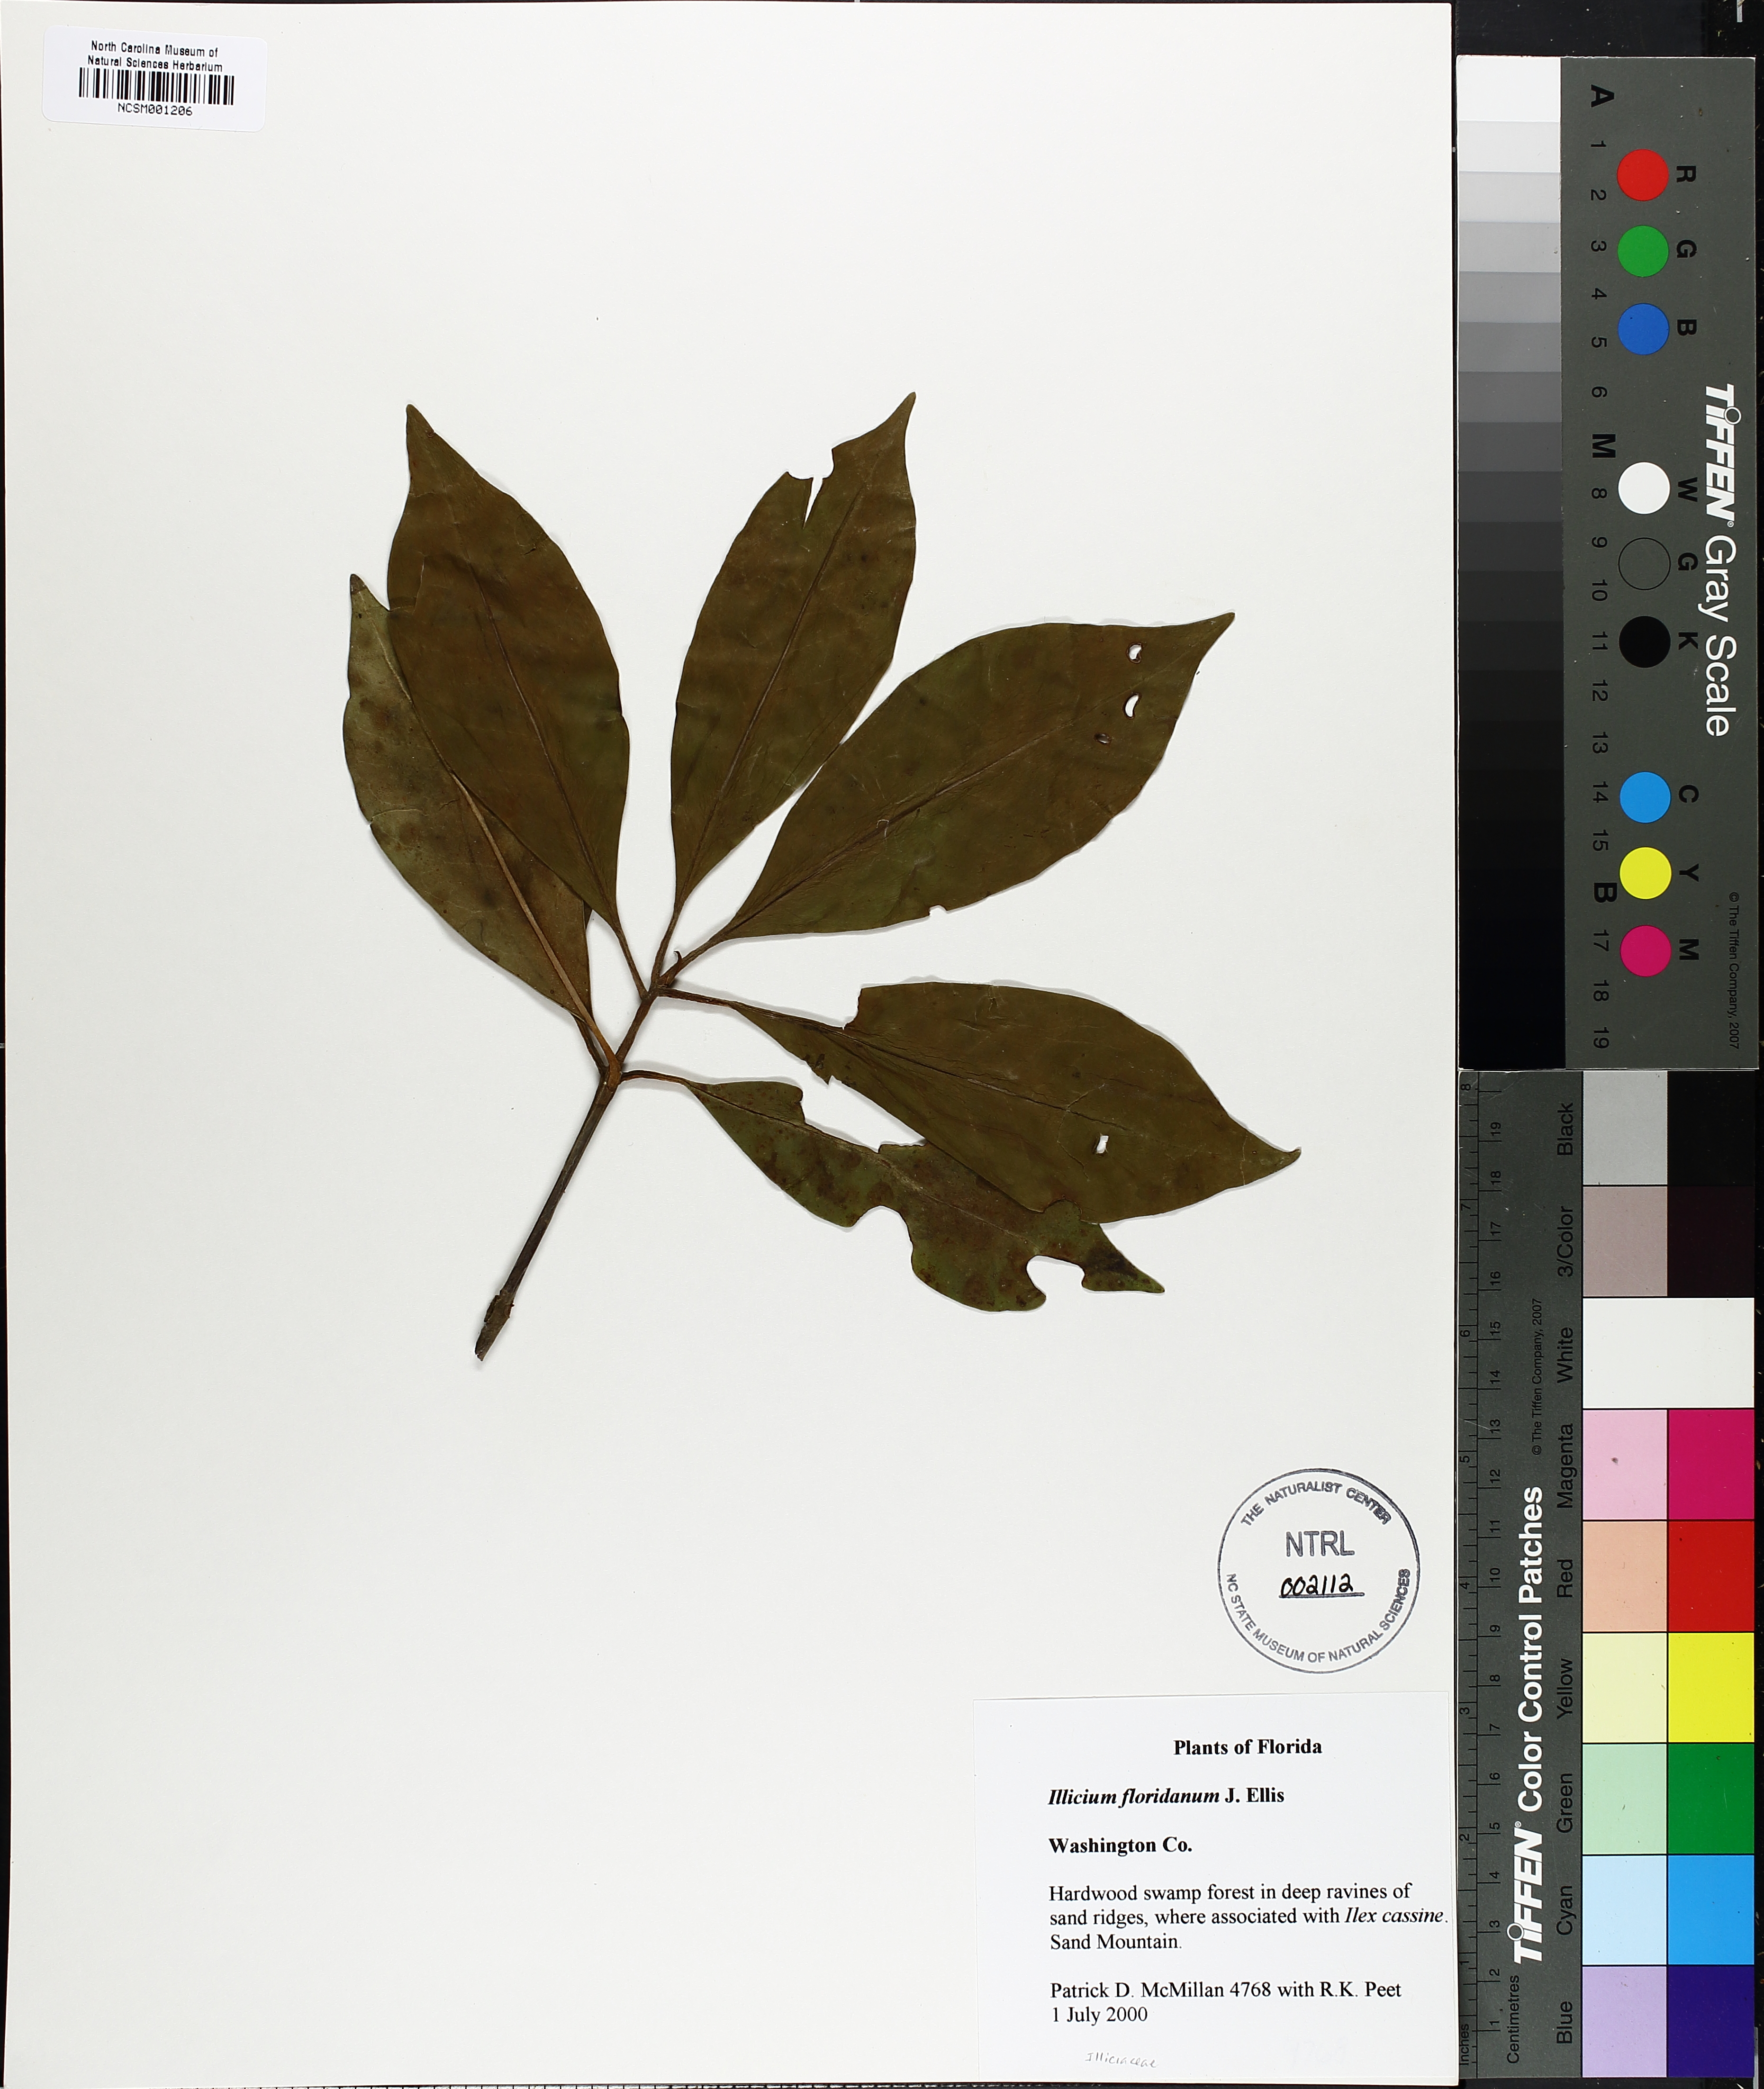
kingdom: Plantae
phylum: Tracheophyta
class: Magnoliopsida
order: Austrobaileyales
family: Schisandraceae
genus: Illicium
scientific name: Illicium floridanum
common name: Florida anisetree
